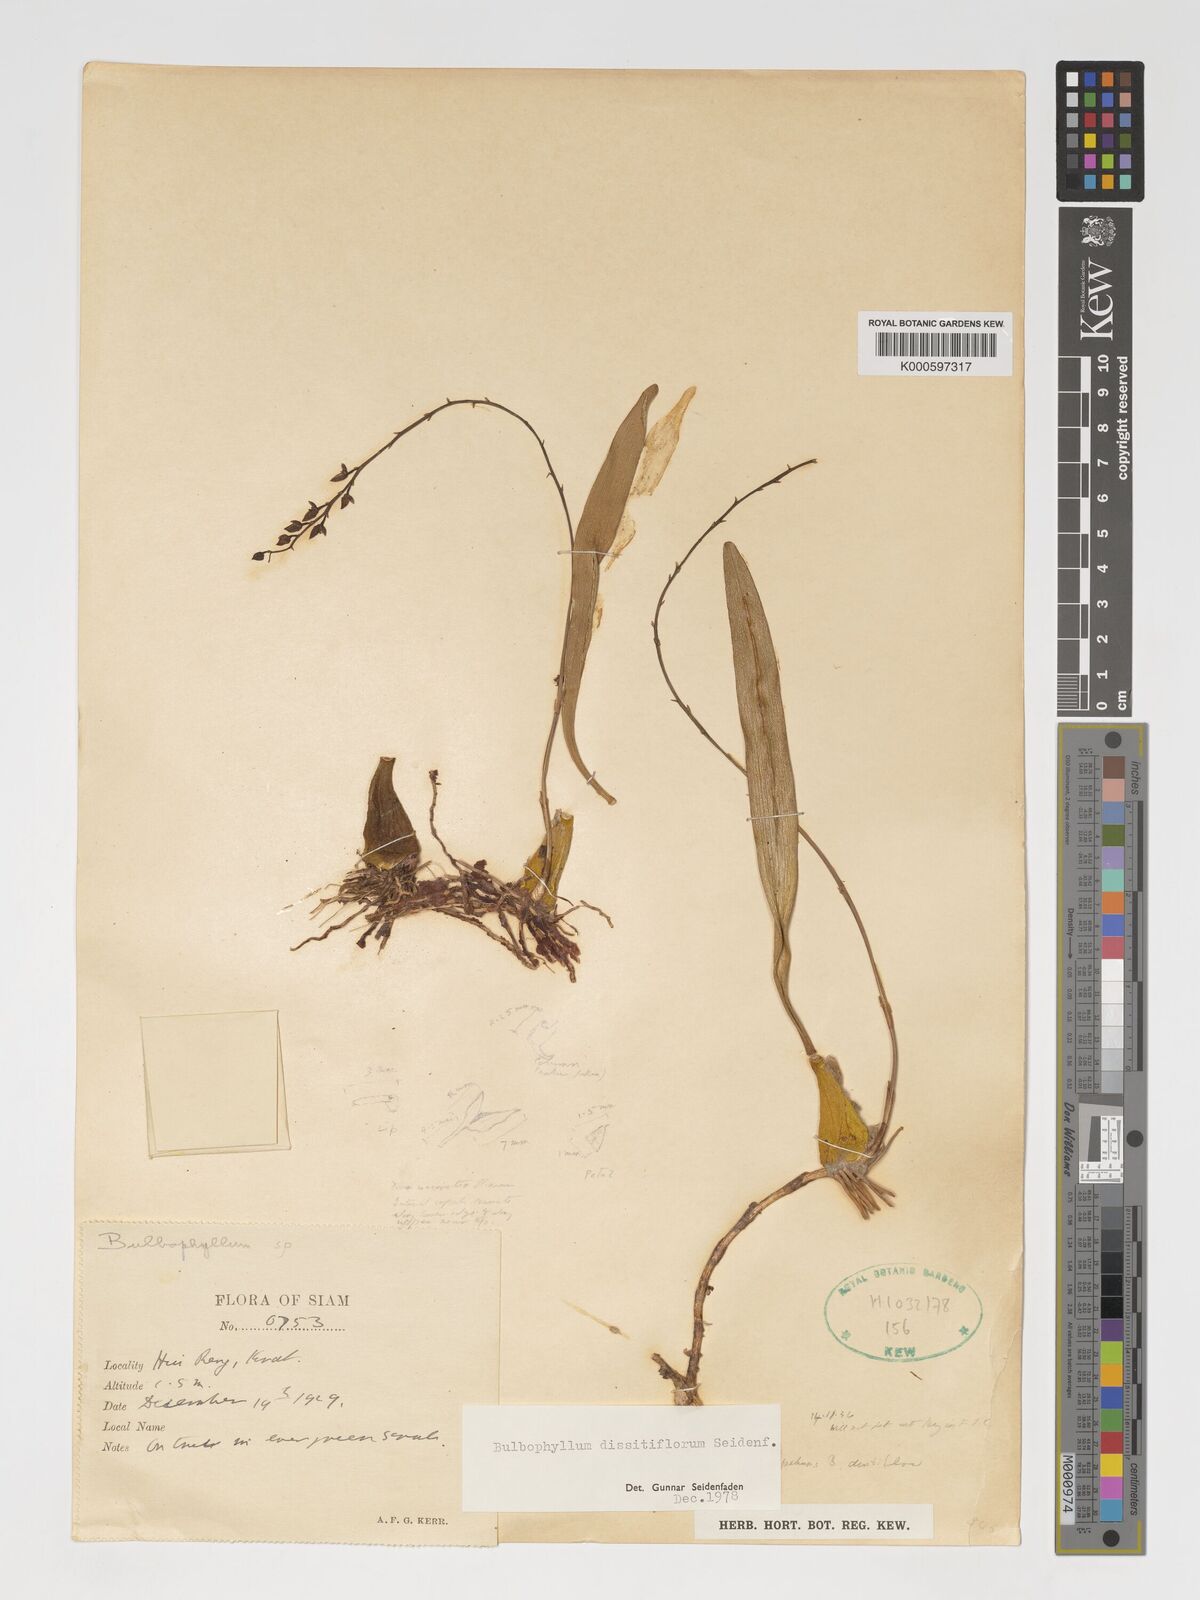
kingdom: Plantae
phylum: Tracheophyta
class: Liliopsida
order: Asparagales
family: Orchidaceae
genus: Bulbophyllum
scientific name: Bulbophyllum dissitiflorum
